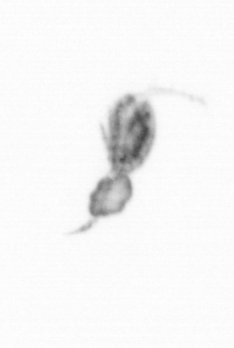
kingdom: Animalia
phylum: Arthropoda
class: Copepoda
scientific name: Copepoda
